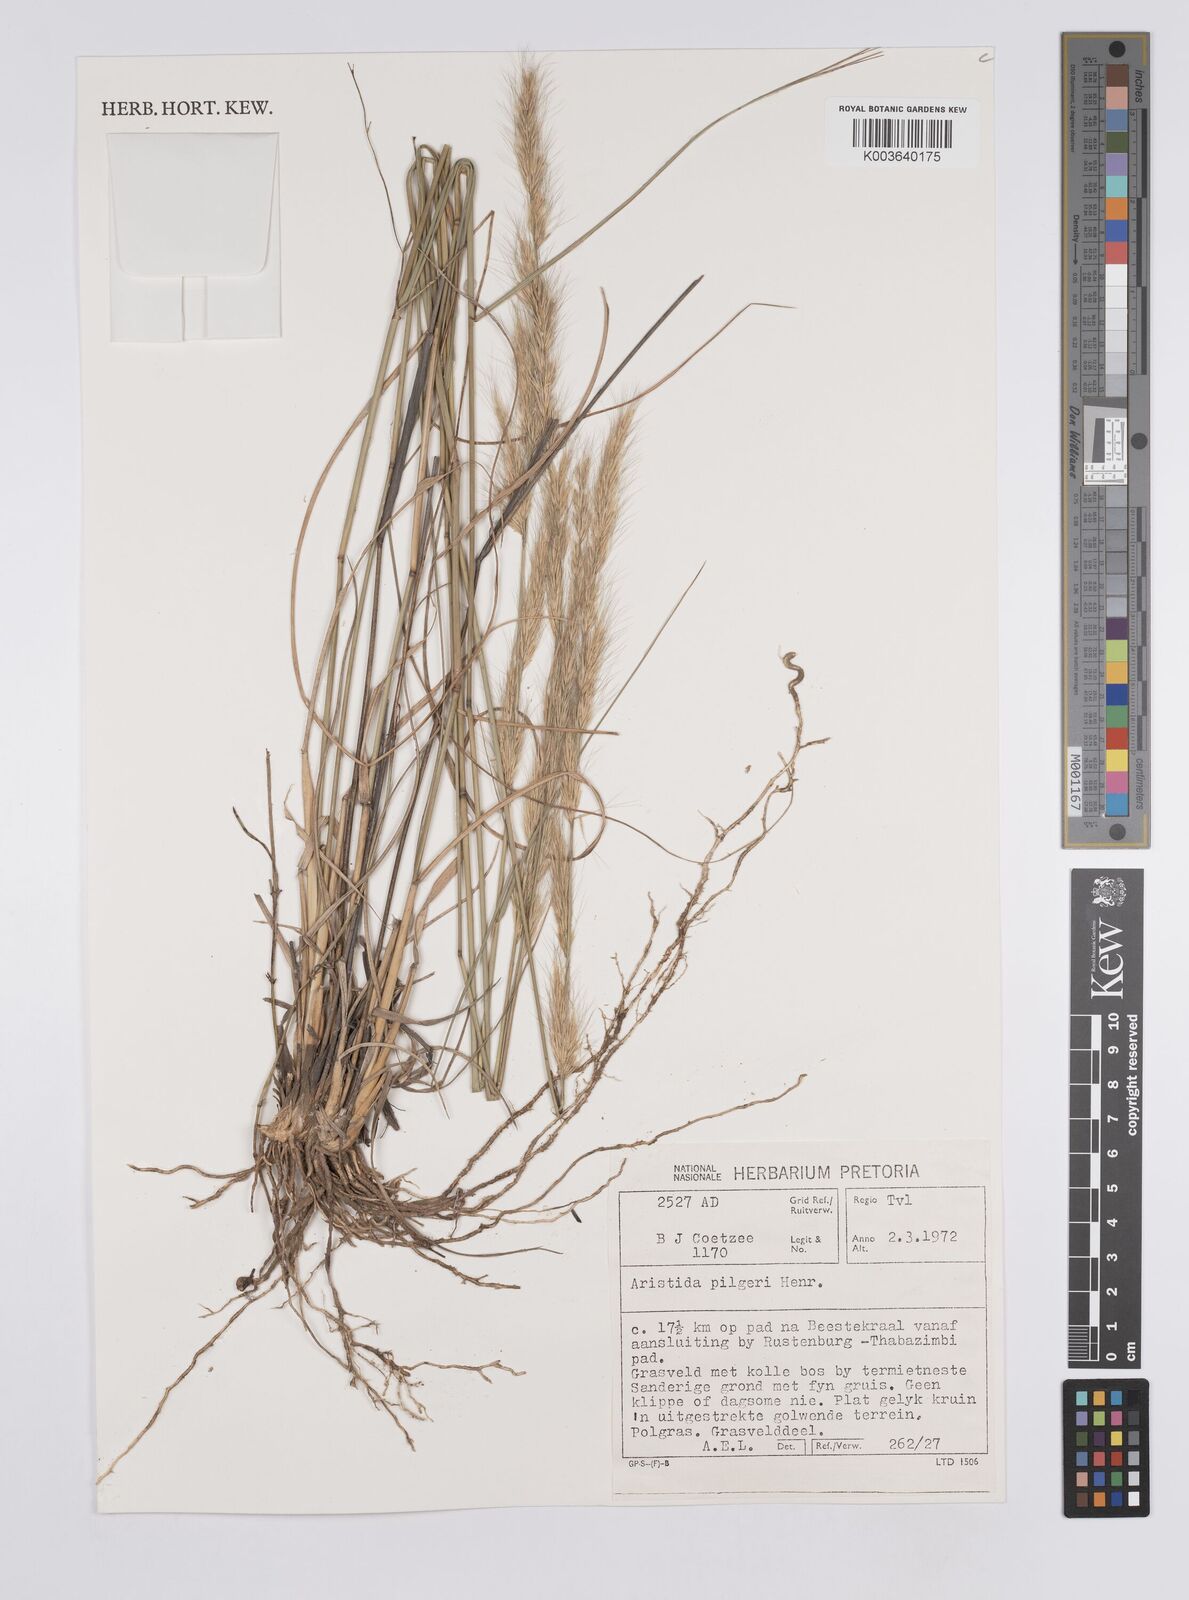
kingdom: Plantae
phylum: Tracheophyta
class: Liliopsida
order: Poales
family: Poaceae
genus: Aristida
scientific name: Aristida pilgeri
